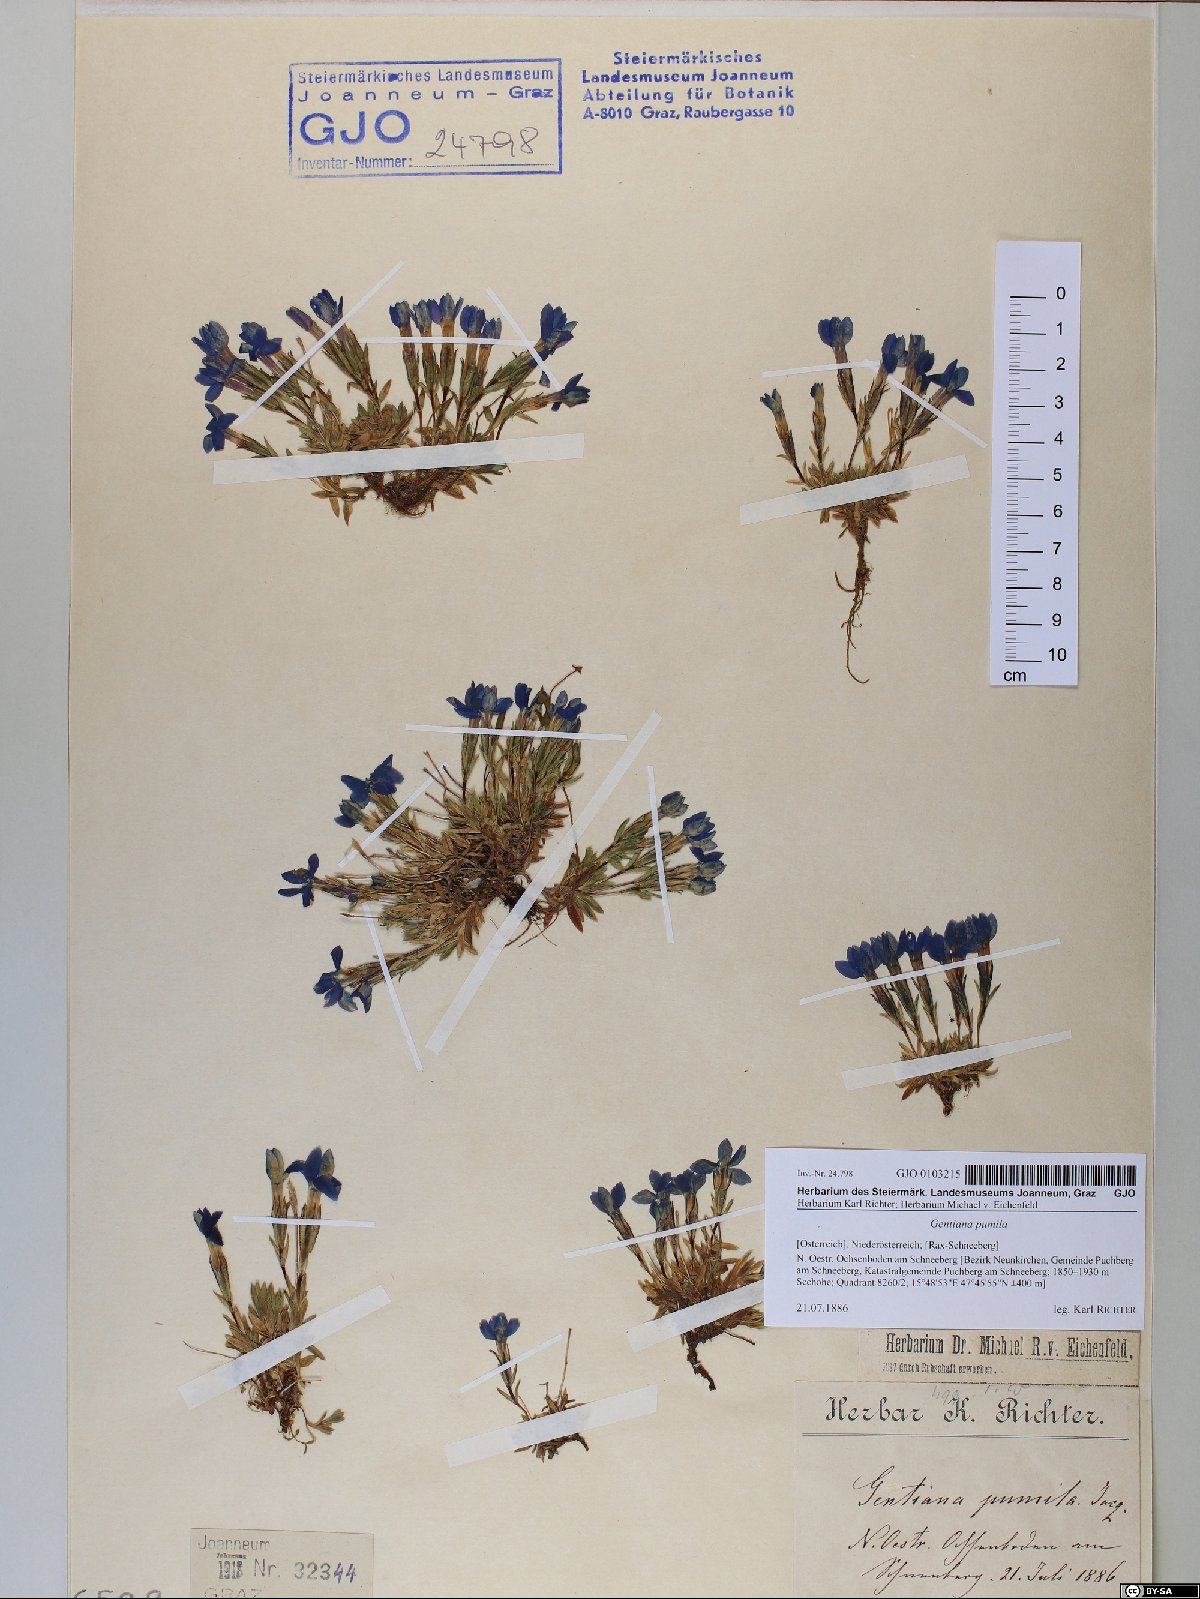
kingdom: Plantae
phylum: Tracheophyta
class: Magnoliopsida
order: Gentianales
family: Gentianaceae
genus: Gentiana
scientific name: Gentiana pumila
